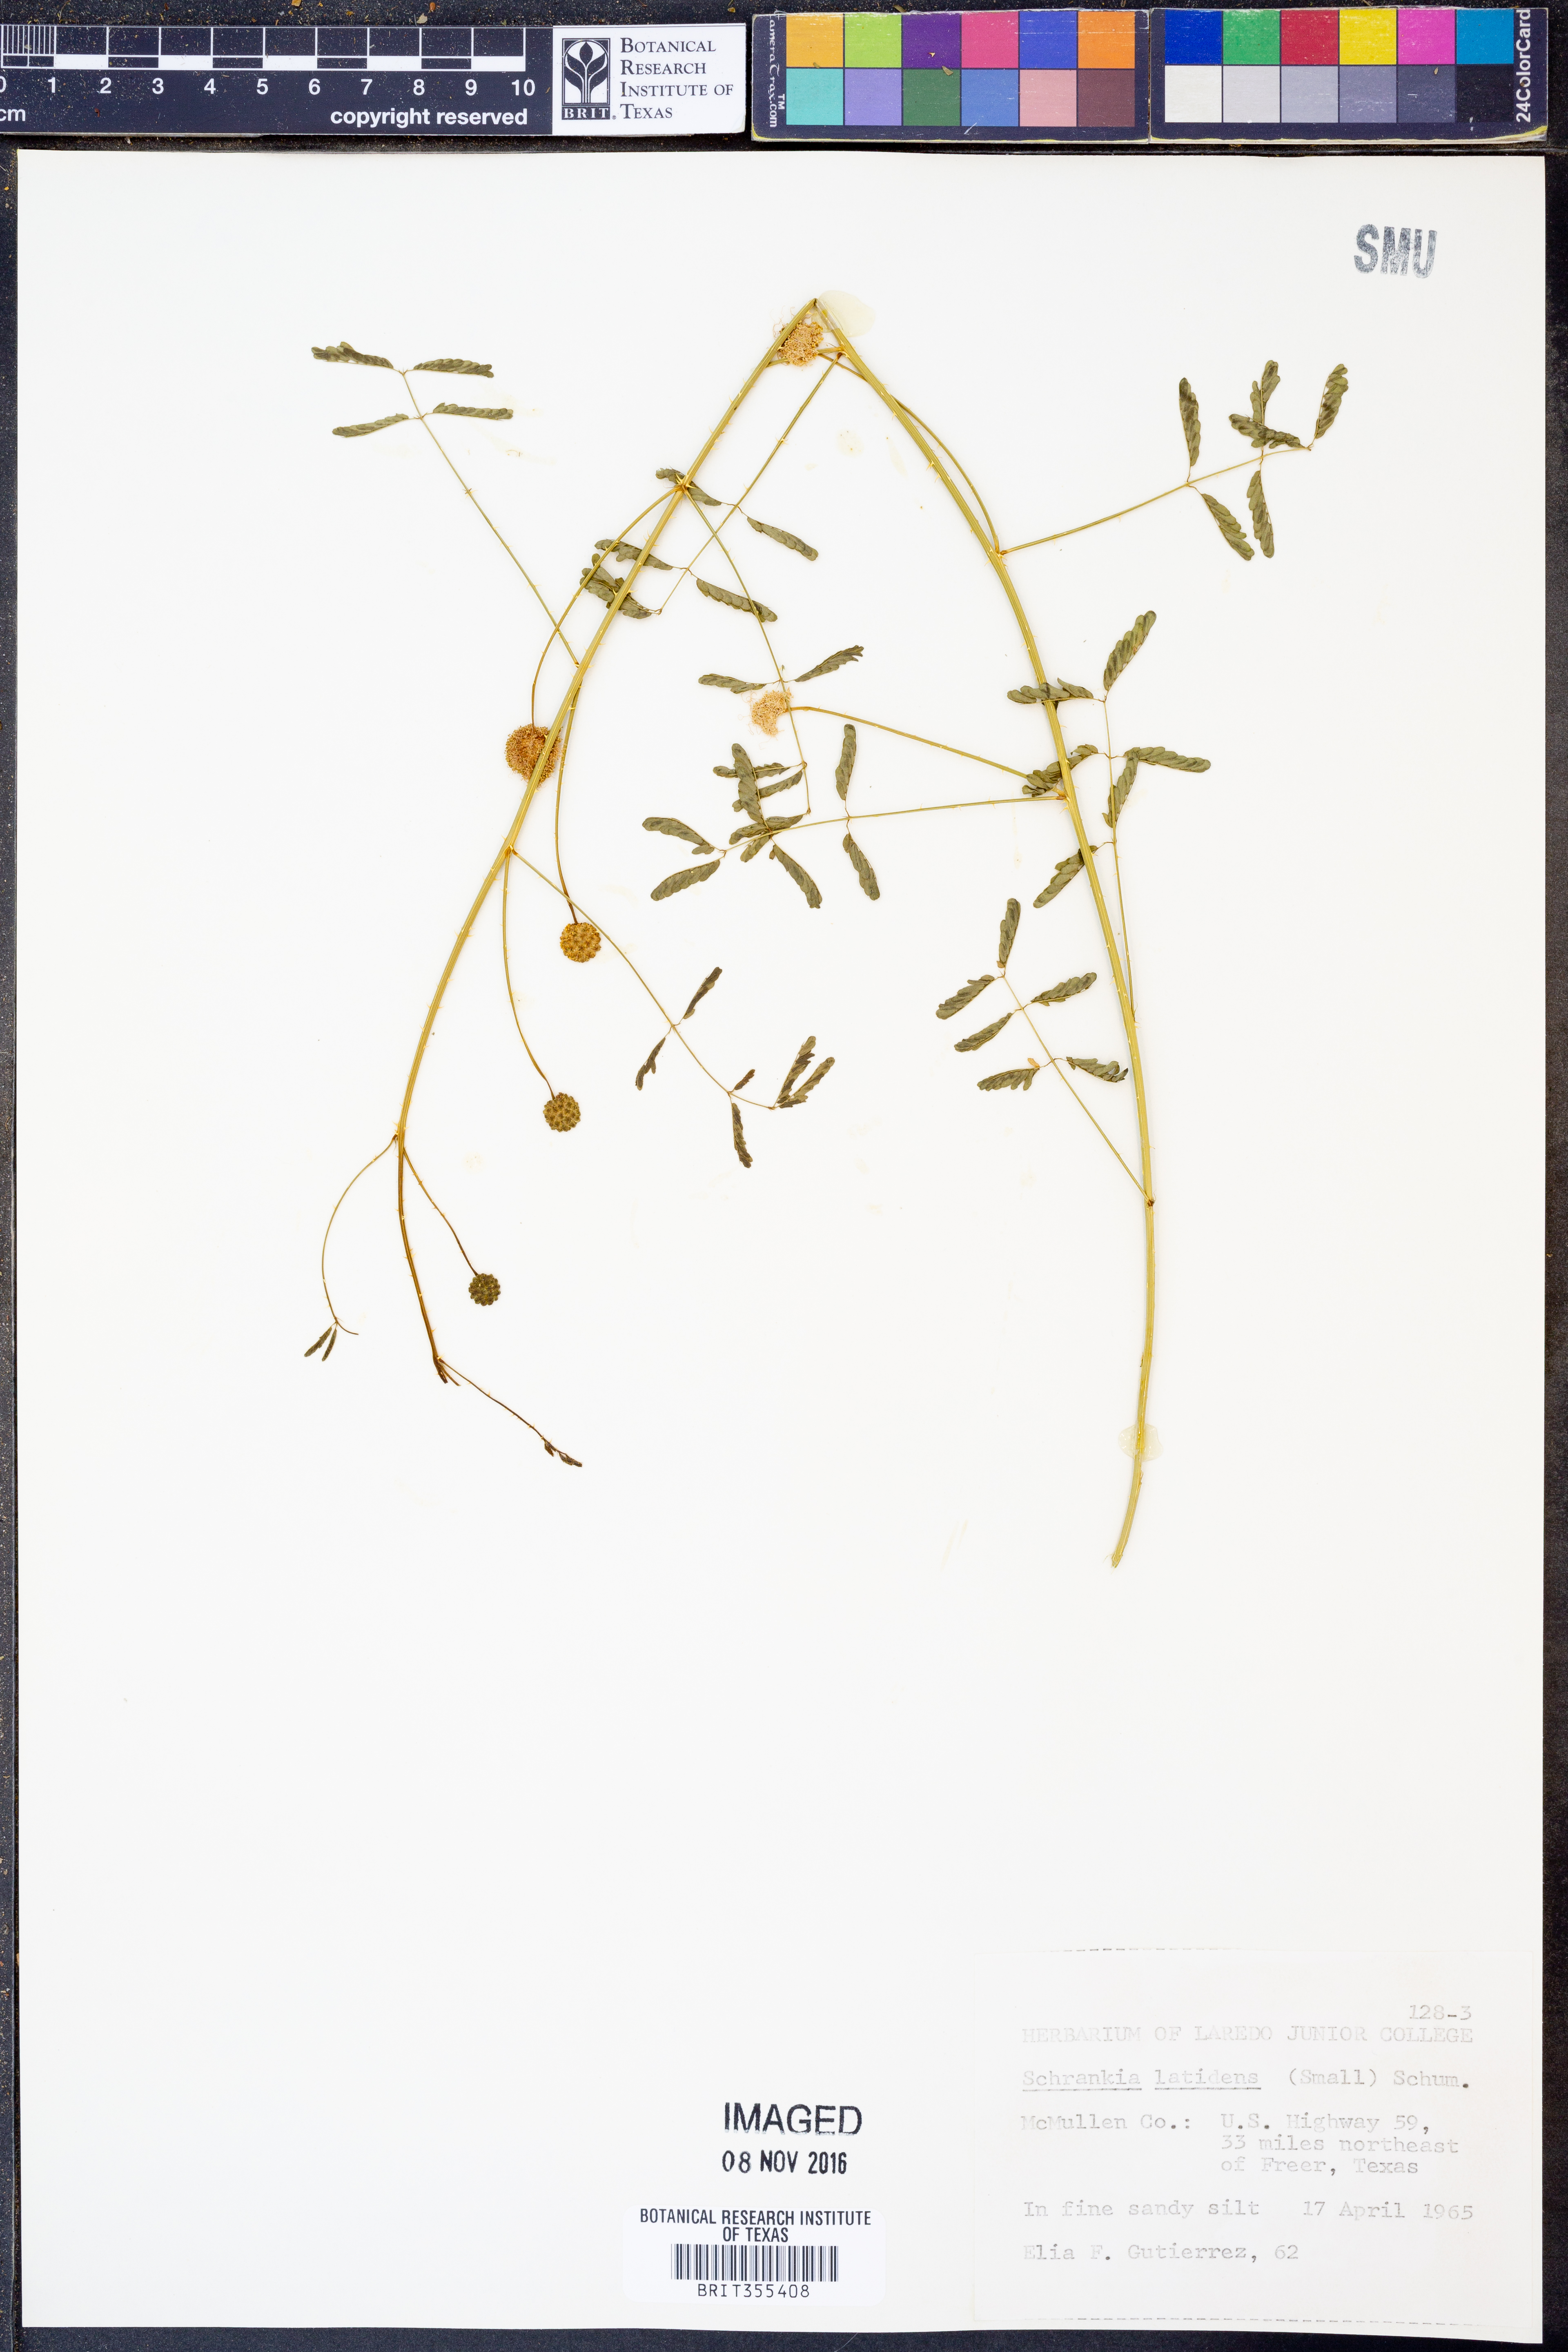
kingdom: Plantae
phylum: Tracheophyta
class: Magnoliopsida
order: Fabales
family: Fabaceae
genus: Mimosa
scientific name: Mimosa quadrivalvis
